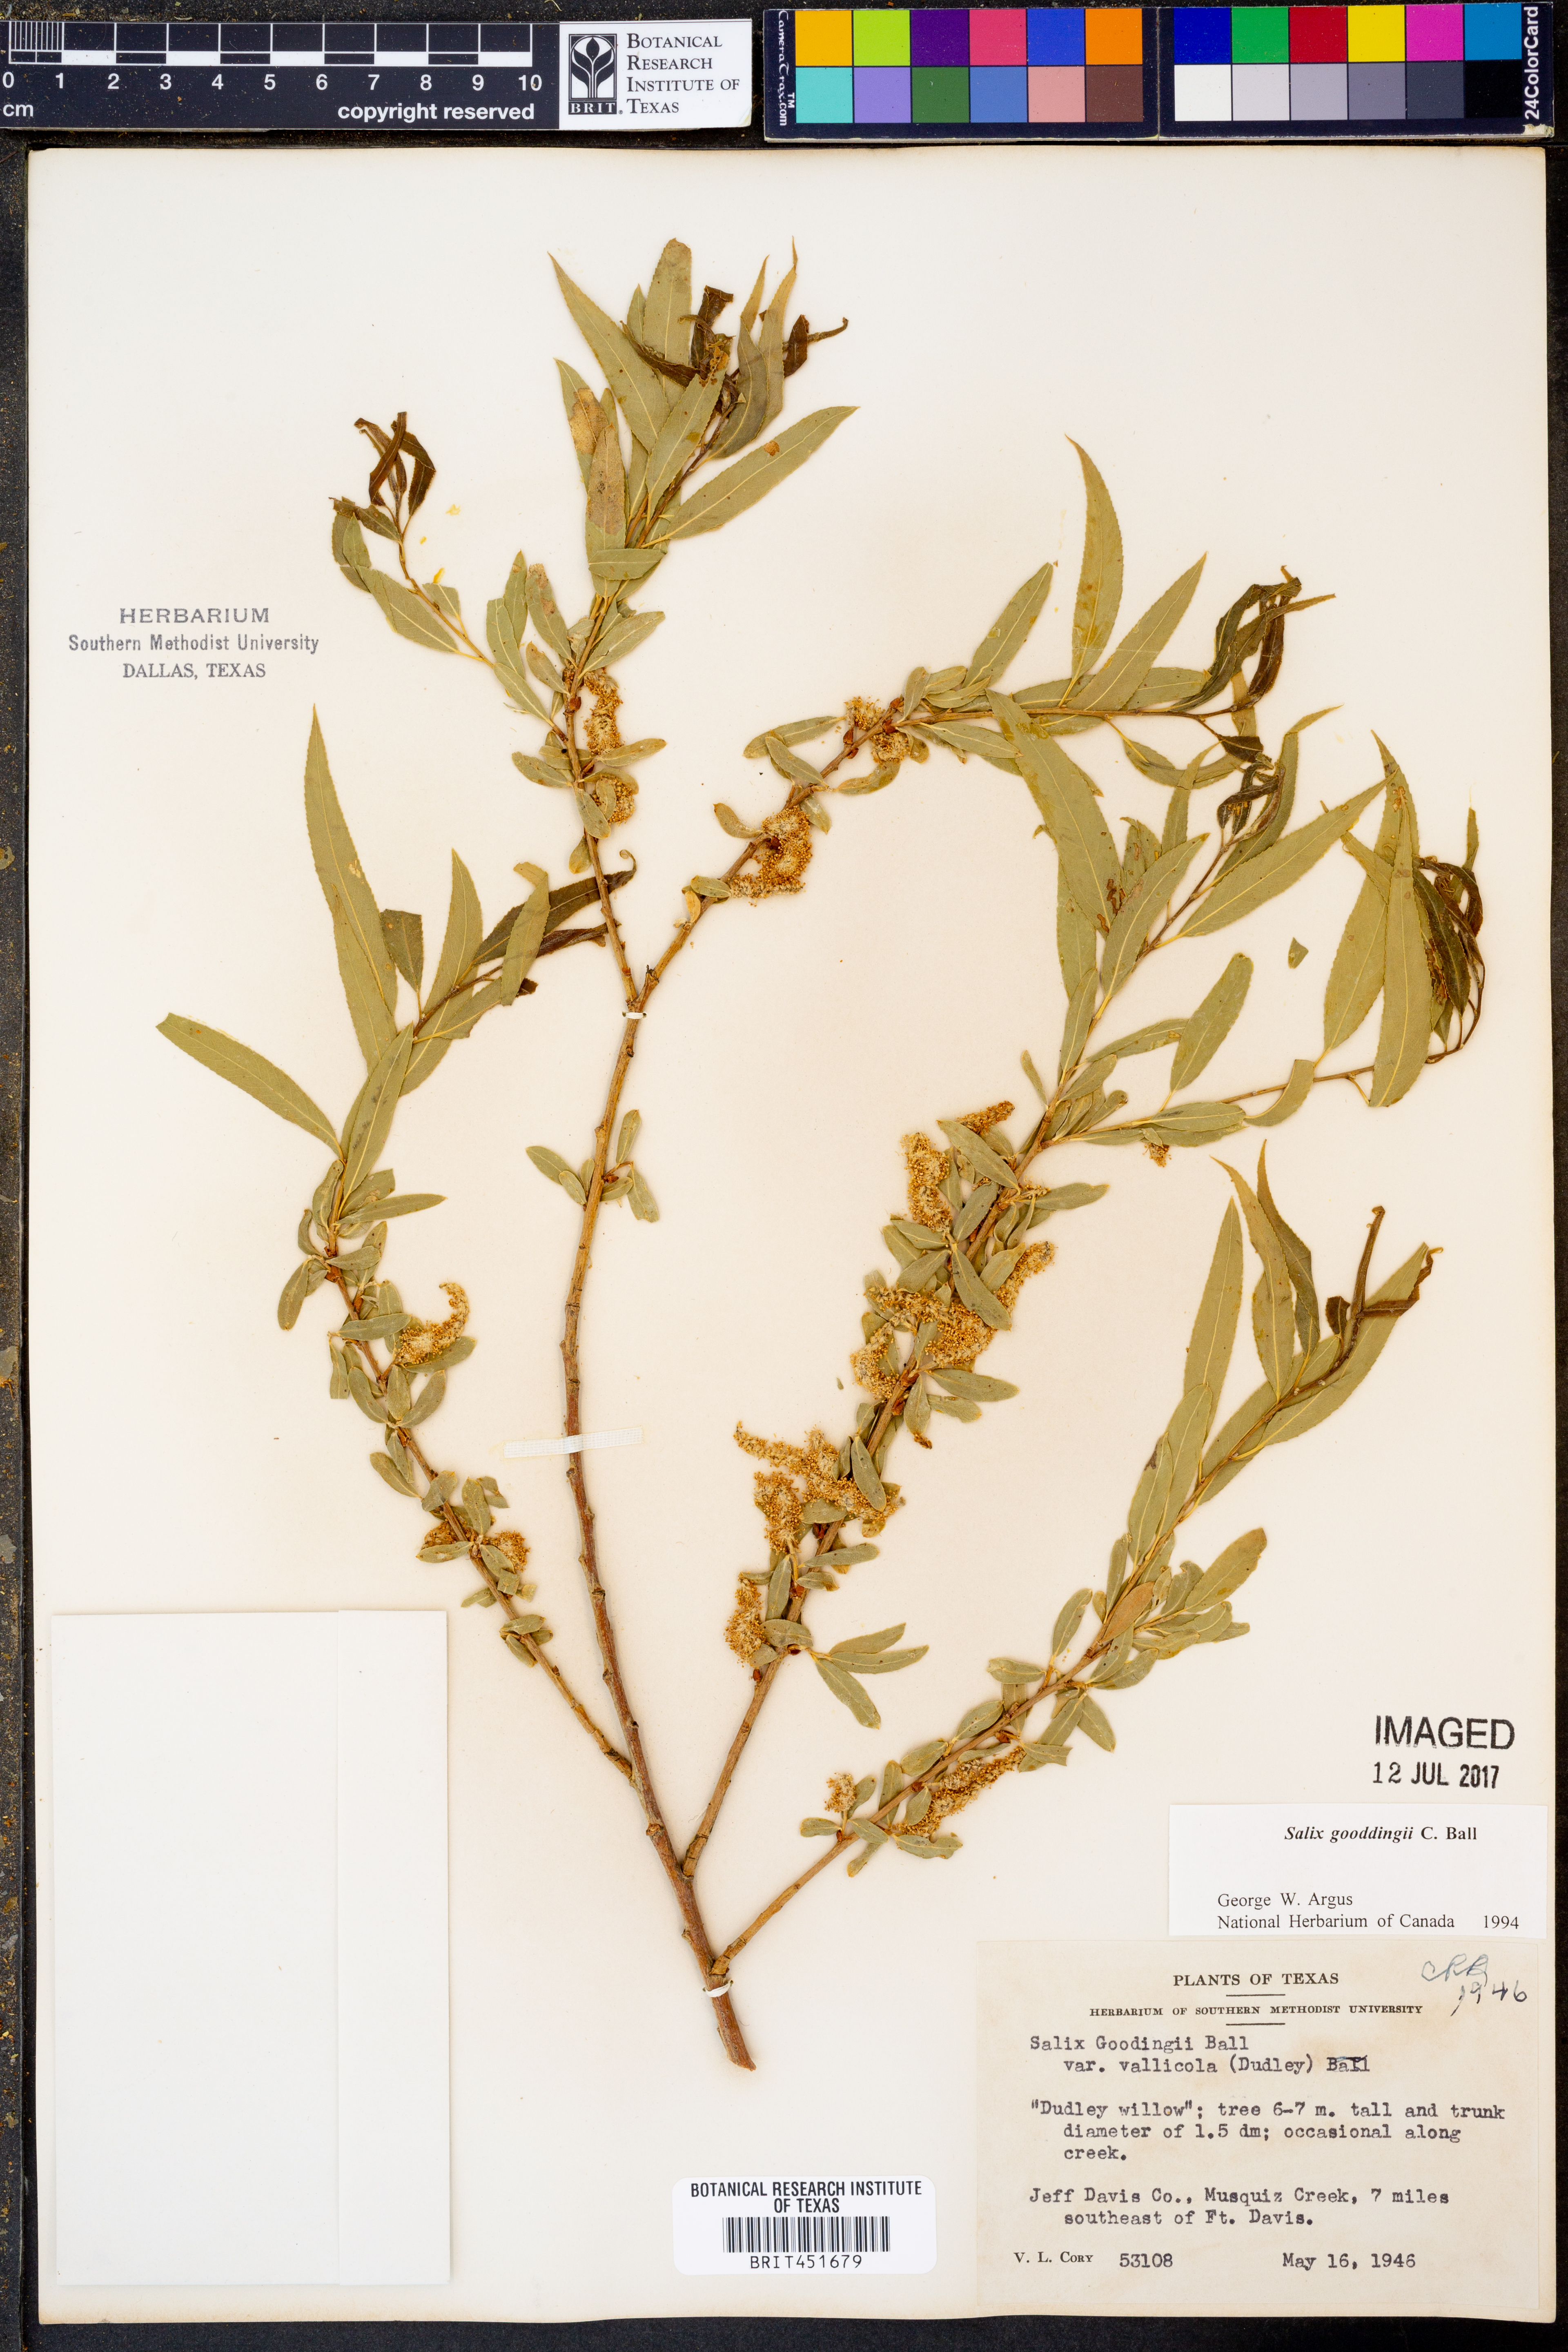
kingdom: Plantae
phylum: Tracheophyta
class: Magnoliopsida
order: Malpighiales
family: Salicaceae
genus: Salix
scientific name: Salix gooddingii
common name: Goodding's willow
